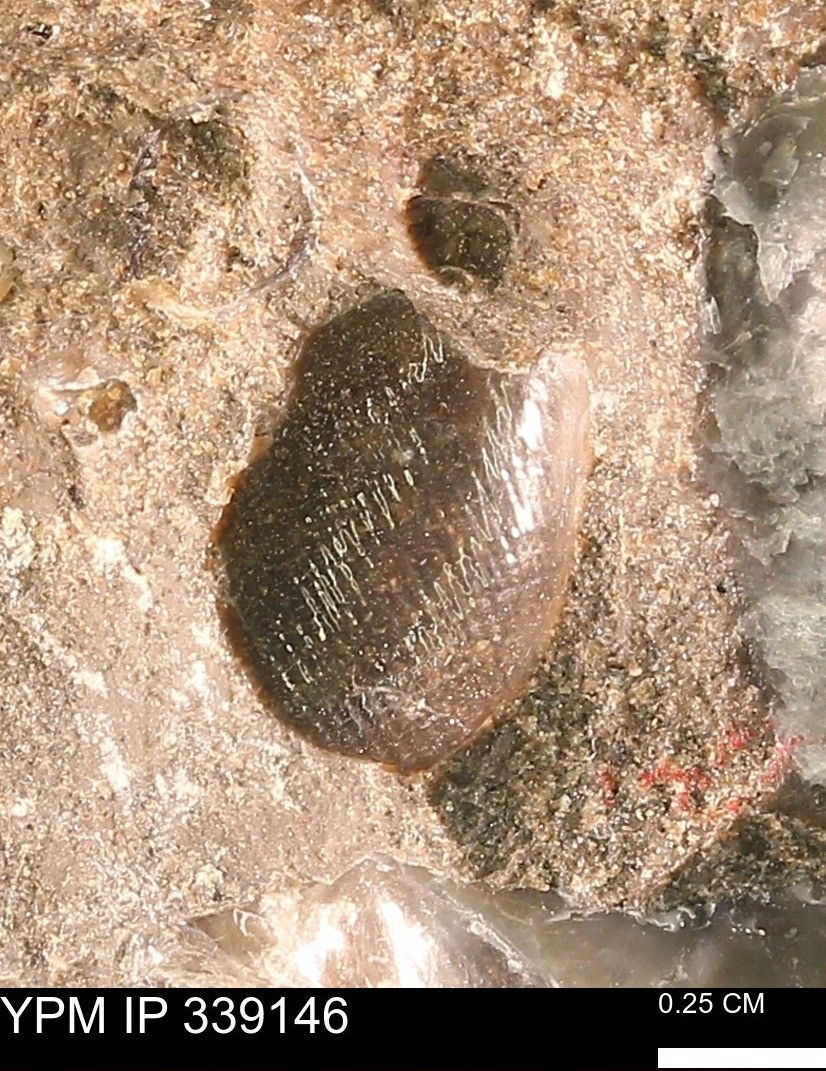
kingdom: Animalia
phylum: Mollusca
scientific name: Mollusca
